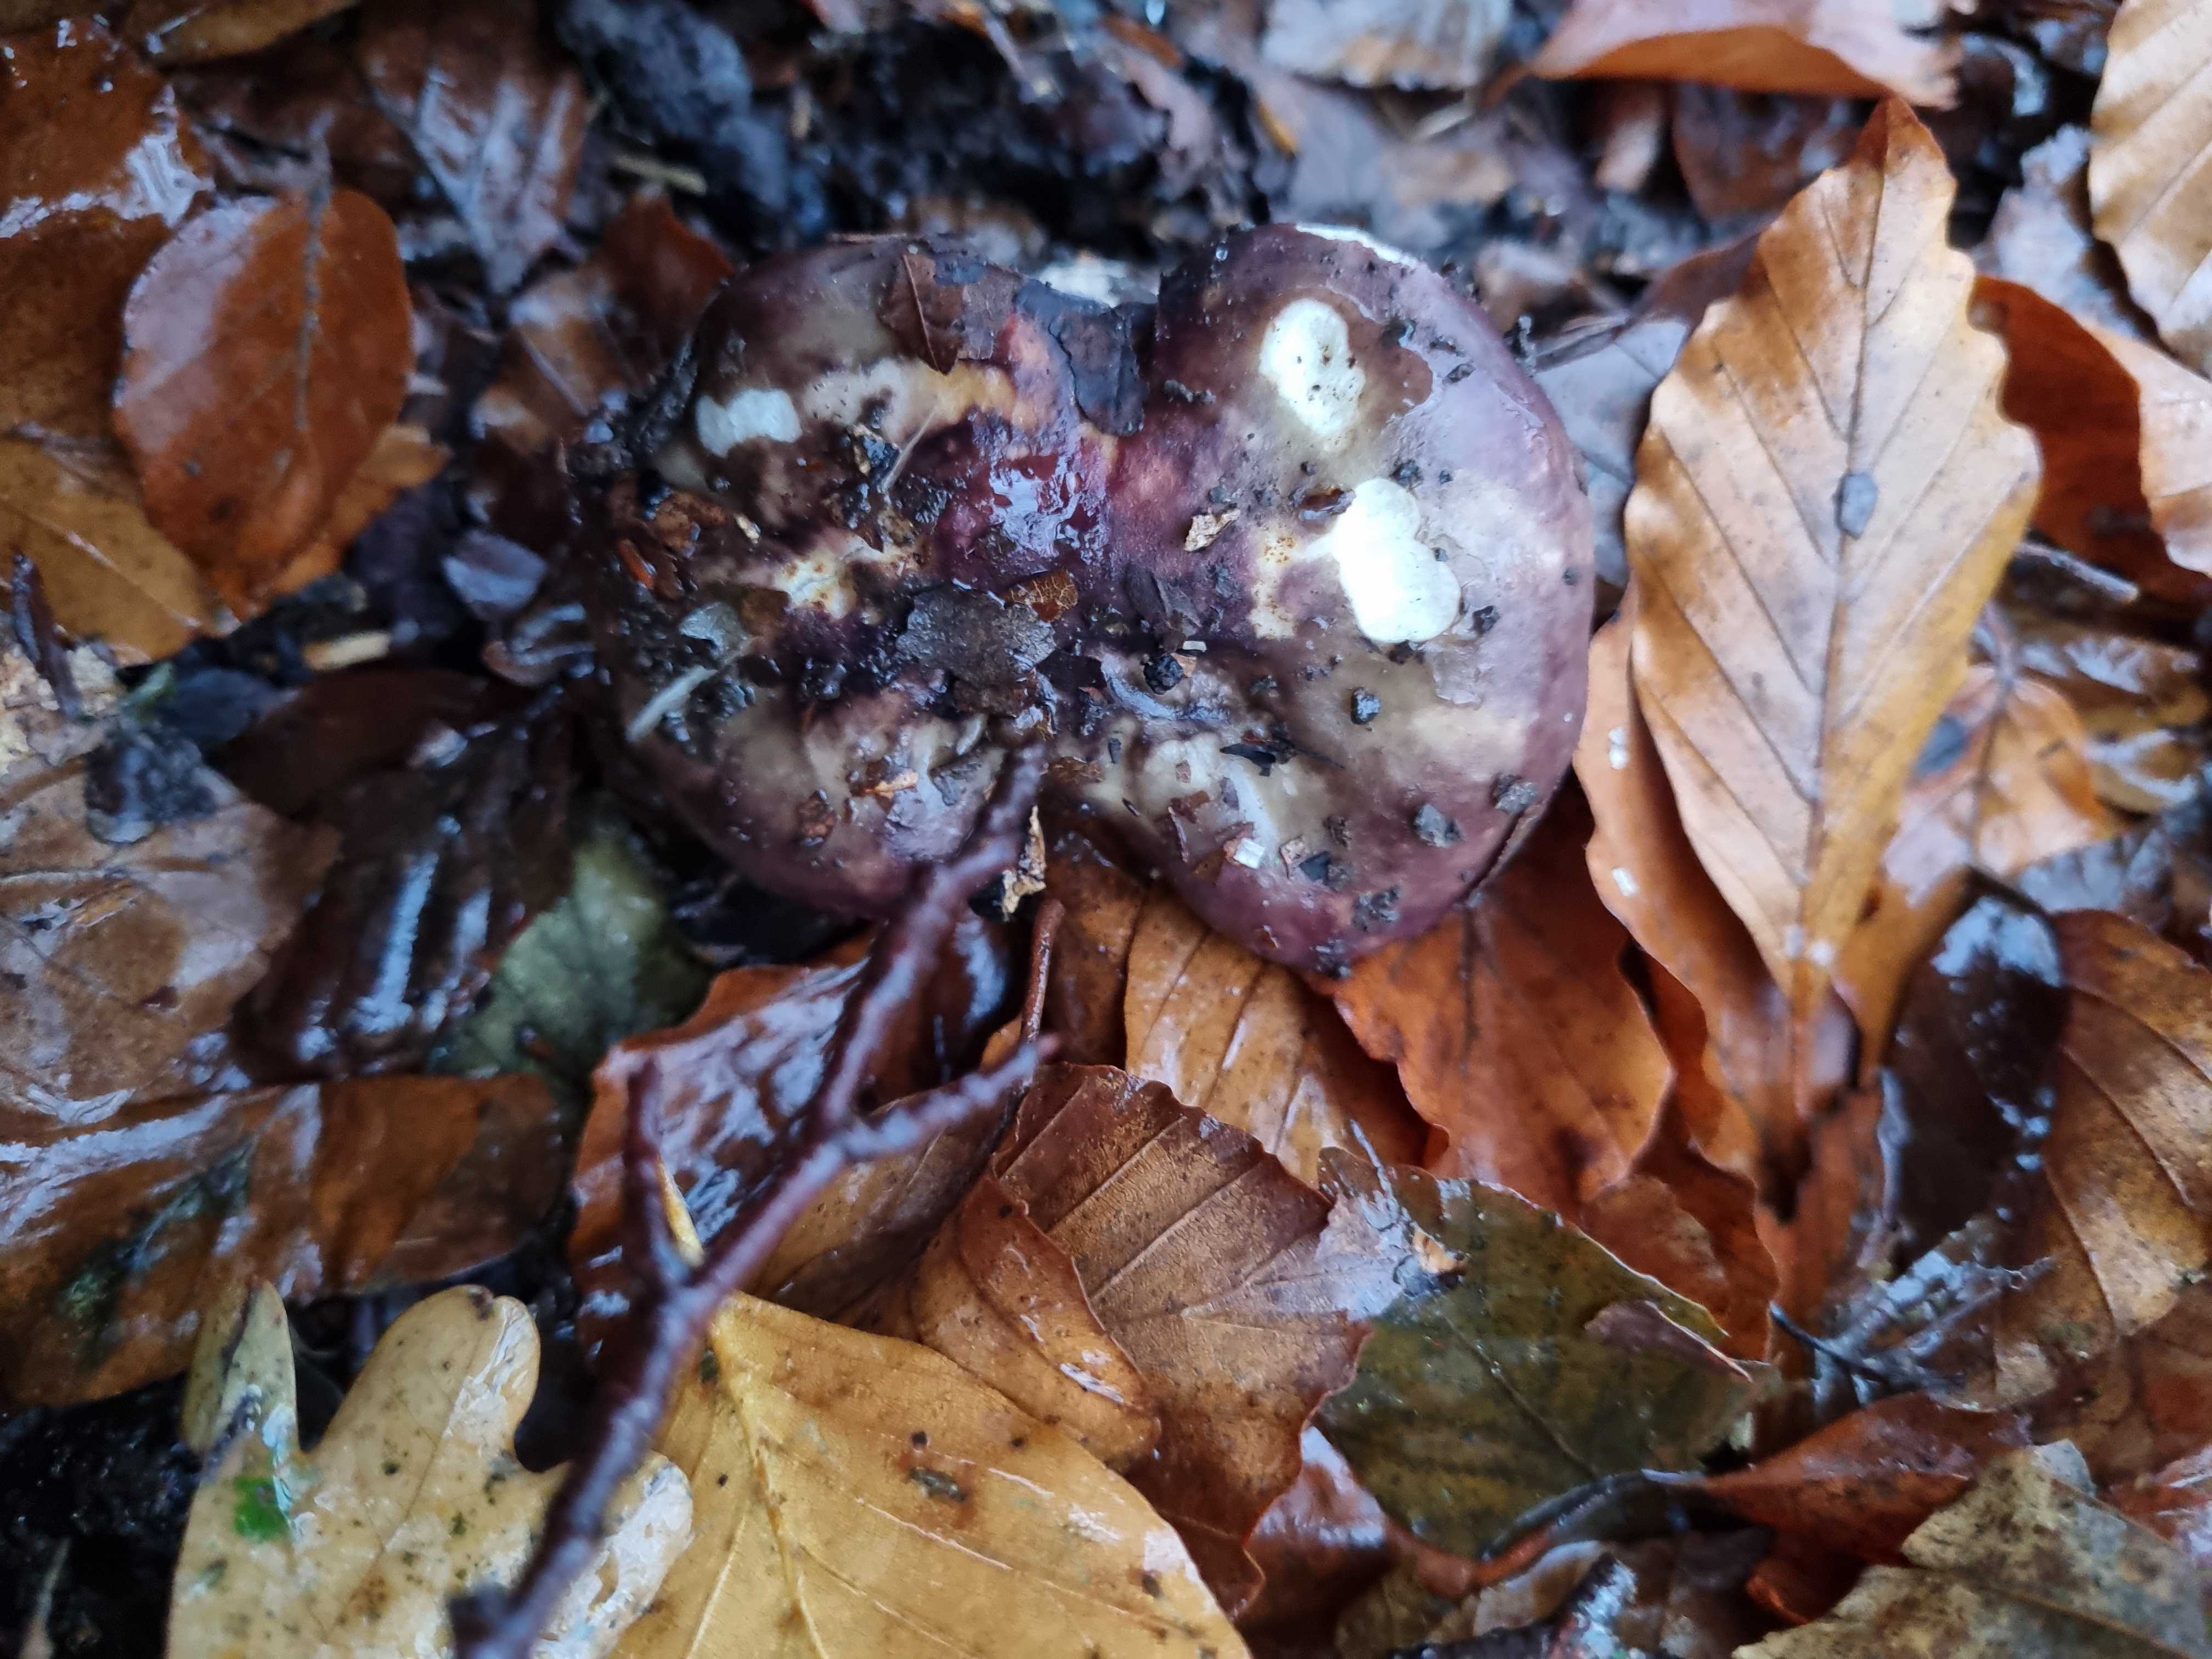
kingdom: Fungi
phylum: Basidiomycota
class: Agaricomycetes
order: Russulales
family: Russulaceae
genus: Russula
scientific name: Russula
